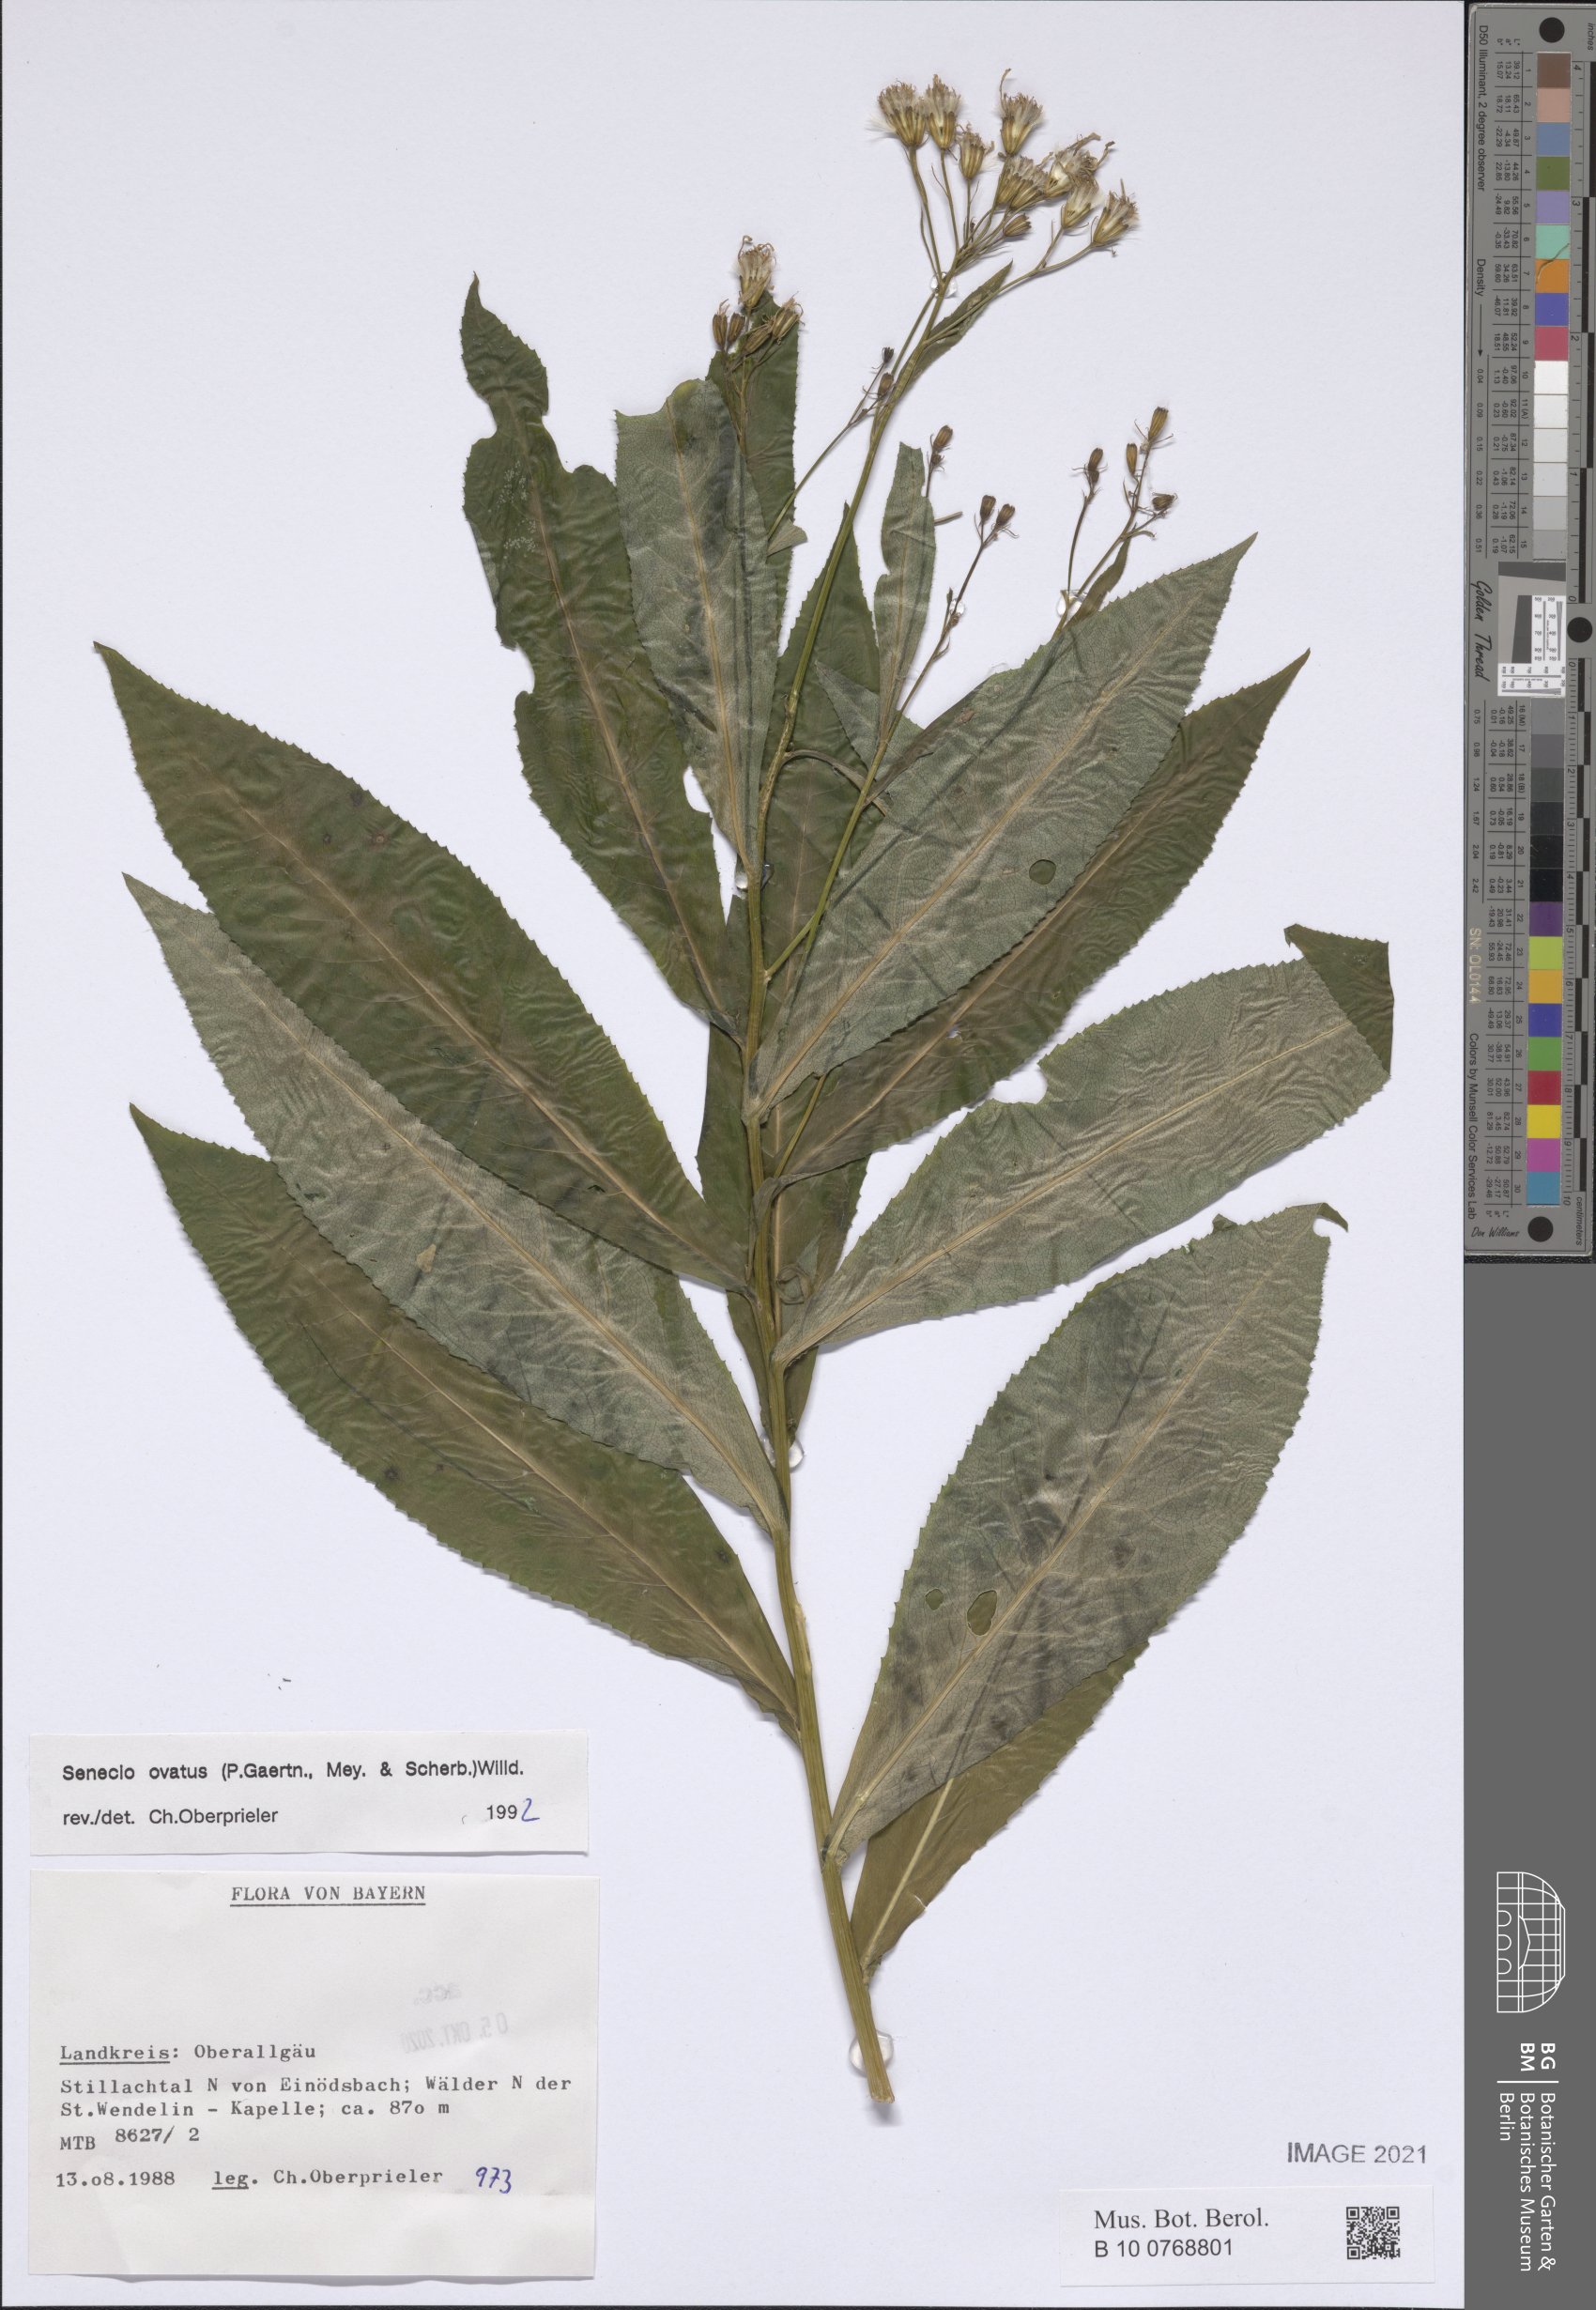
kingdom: Plantae
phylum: Tracheophyta
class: Magnoliopsida
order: Asterales
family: Asteraceae
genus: Senecio
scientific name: Senecio ovatus
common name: Wood ragwort
